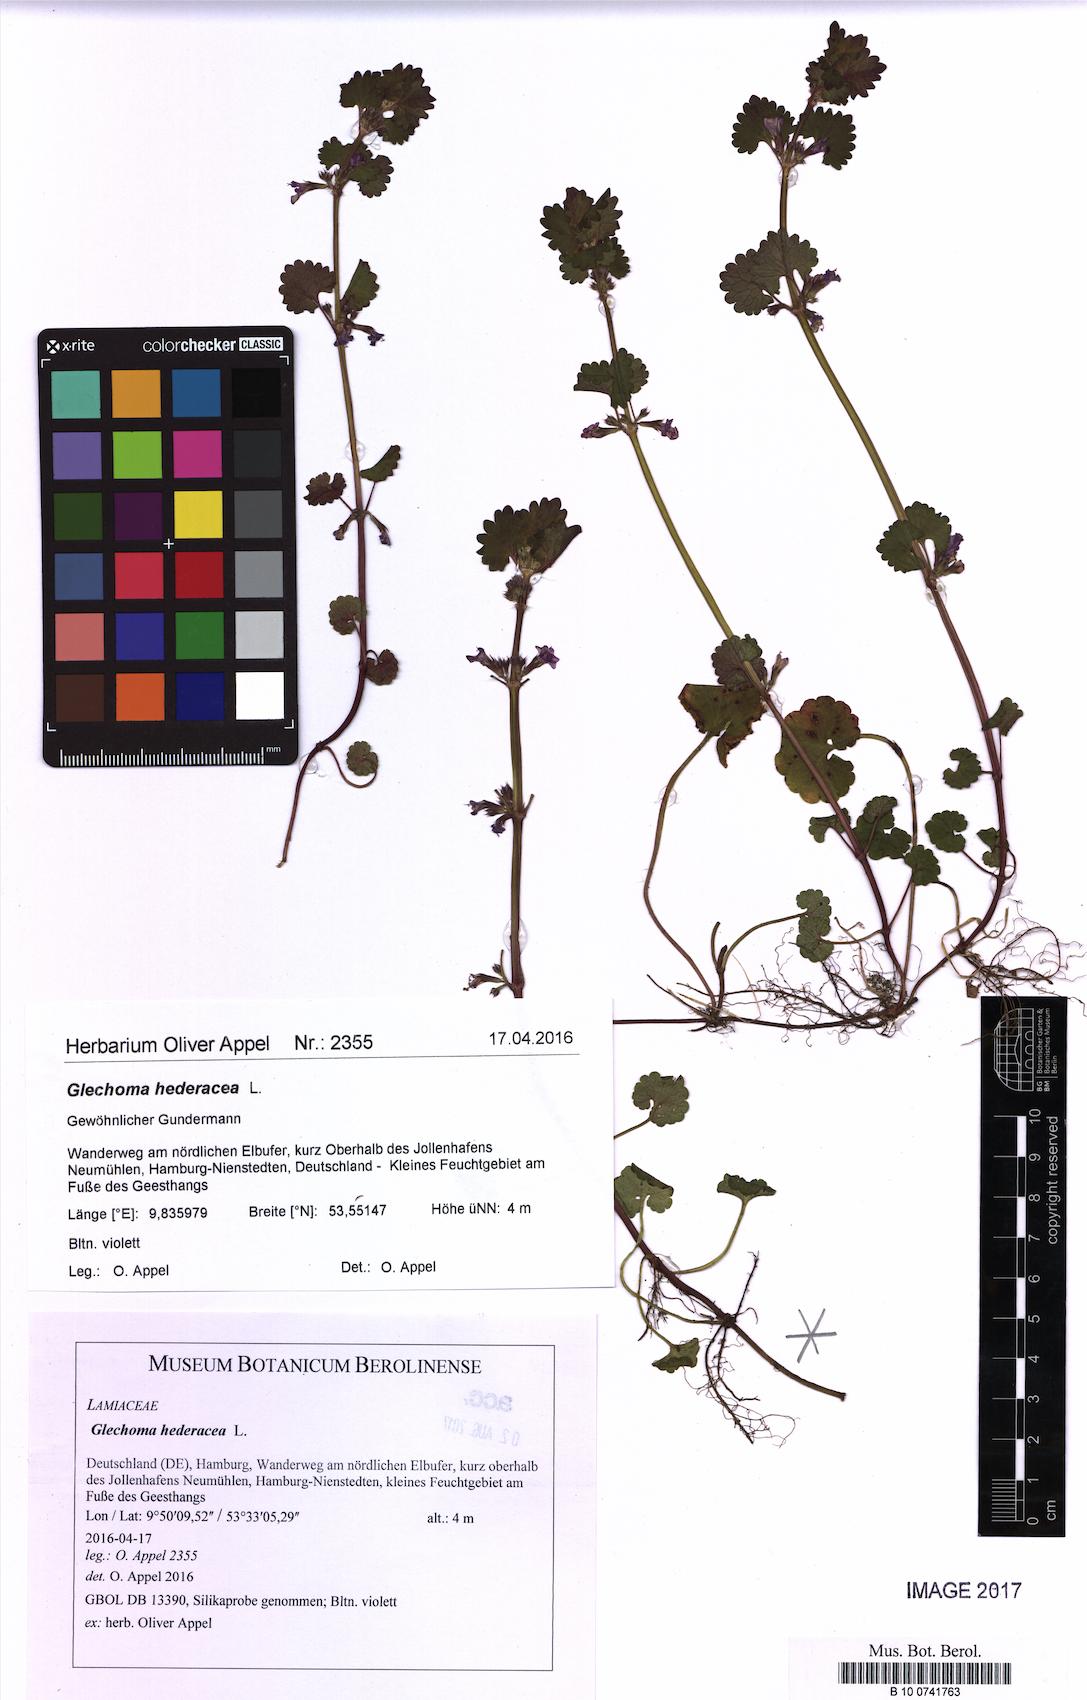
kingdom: Plantae
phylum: Tracheophyta
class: Magnoliopsida
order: Lamiales
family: Lamiaceae
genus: Glechoma
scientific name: Glechoma hederacea
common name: Ground ivy
